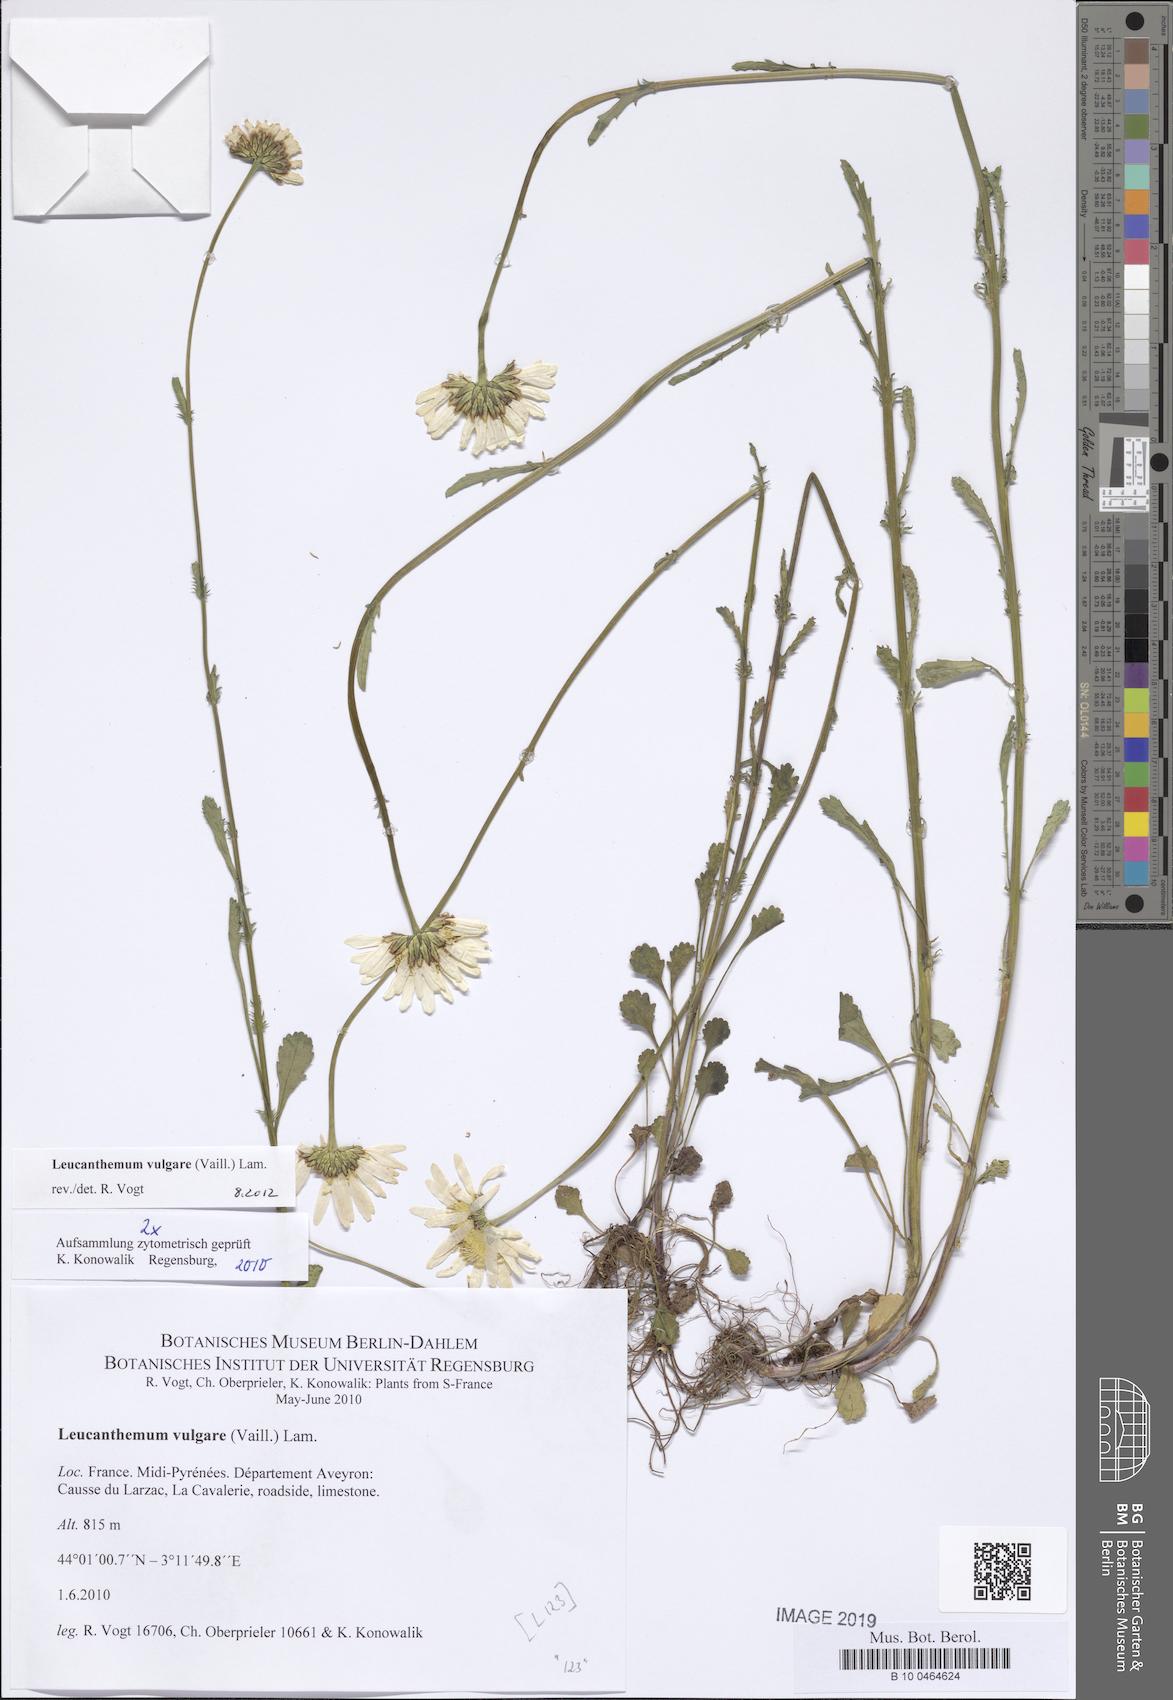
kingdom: Plantae
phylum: Tracheophyta
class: Magnoliopsida
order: Asterales
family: Asteraceae
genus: Leucanthemum
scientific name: Leucanthemum vulgare
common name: Oxeye daisy
